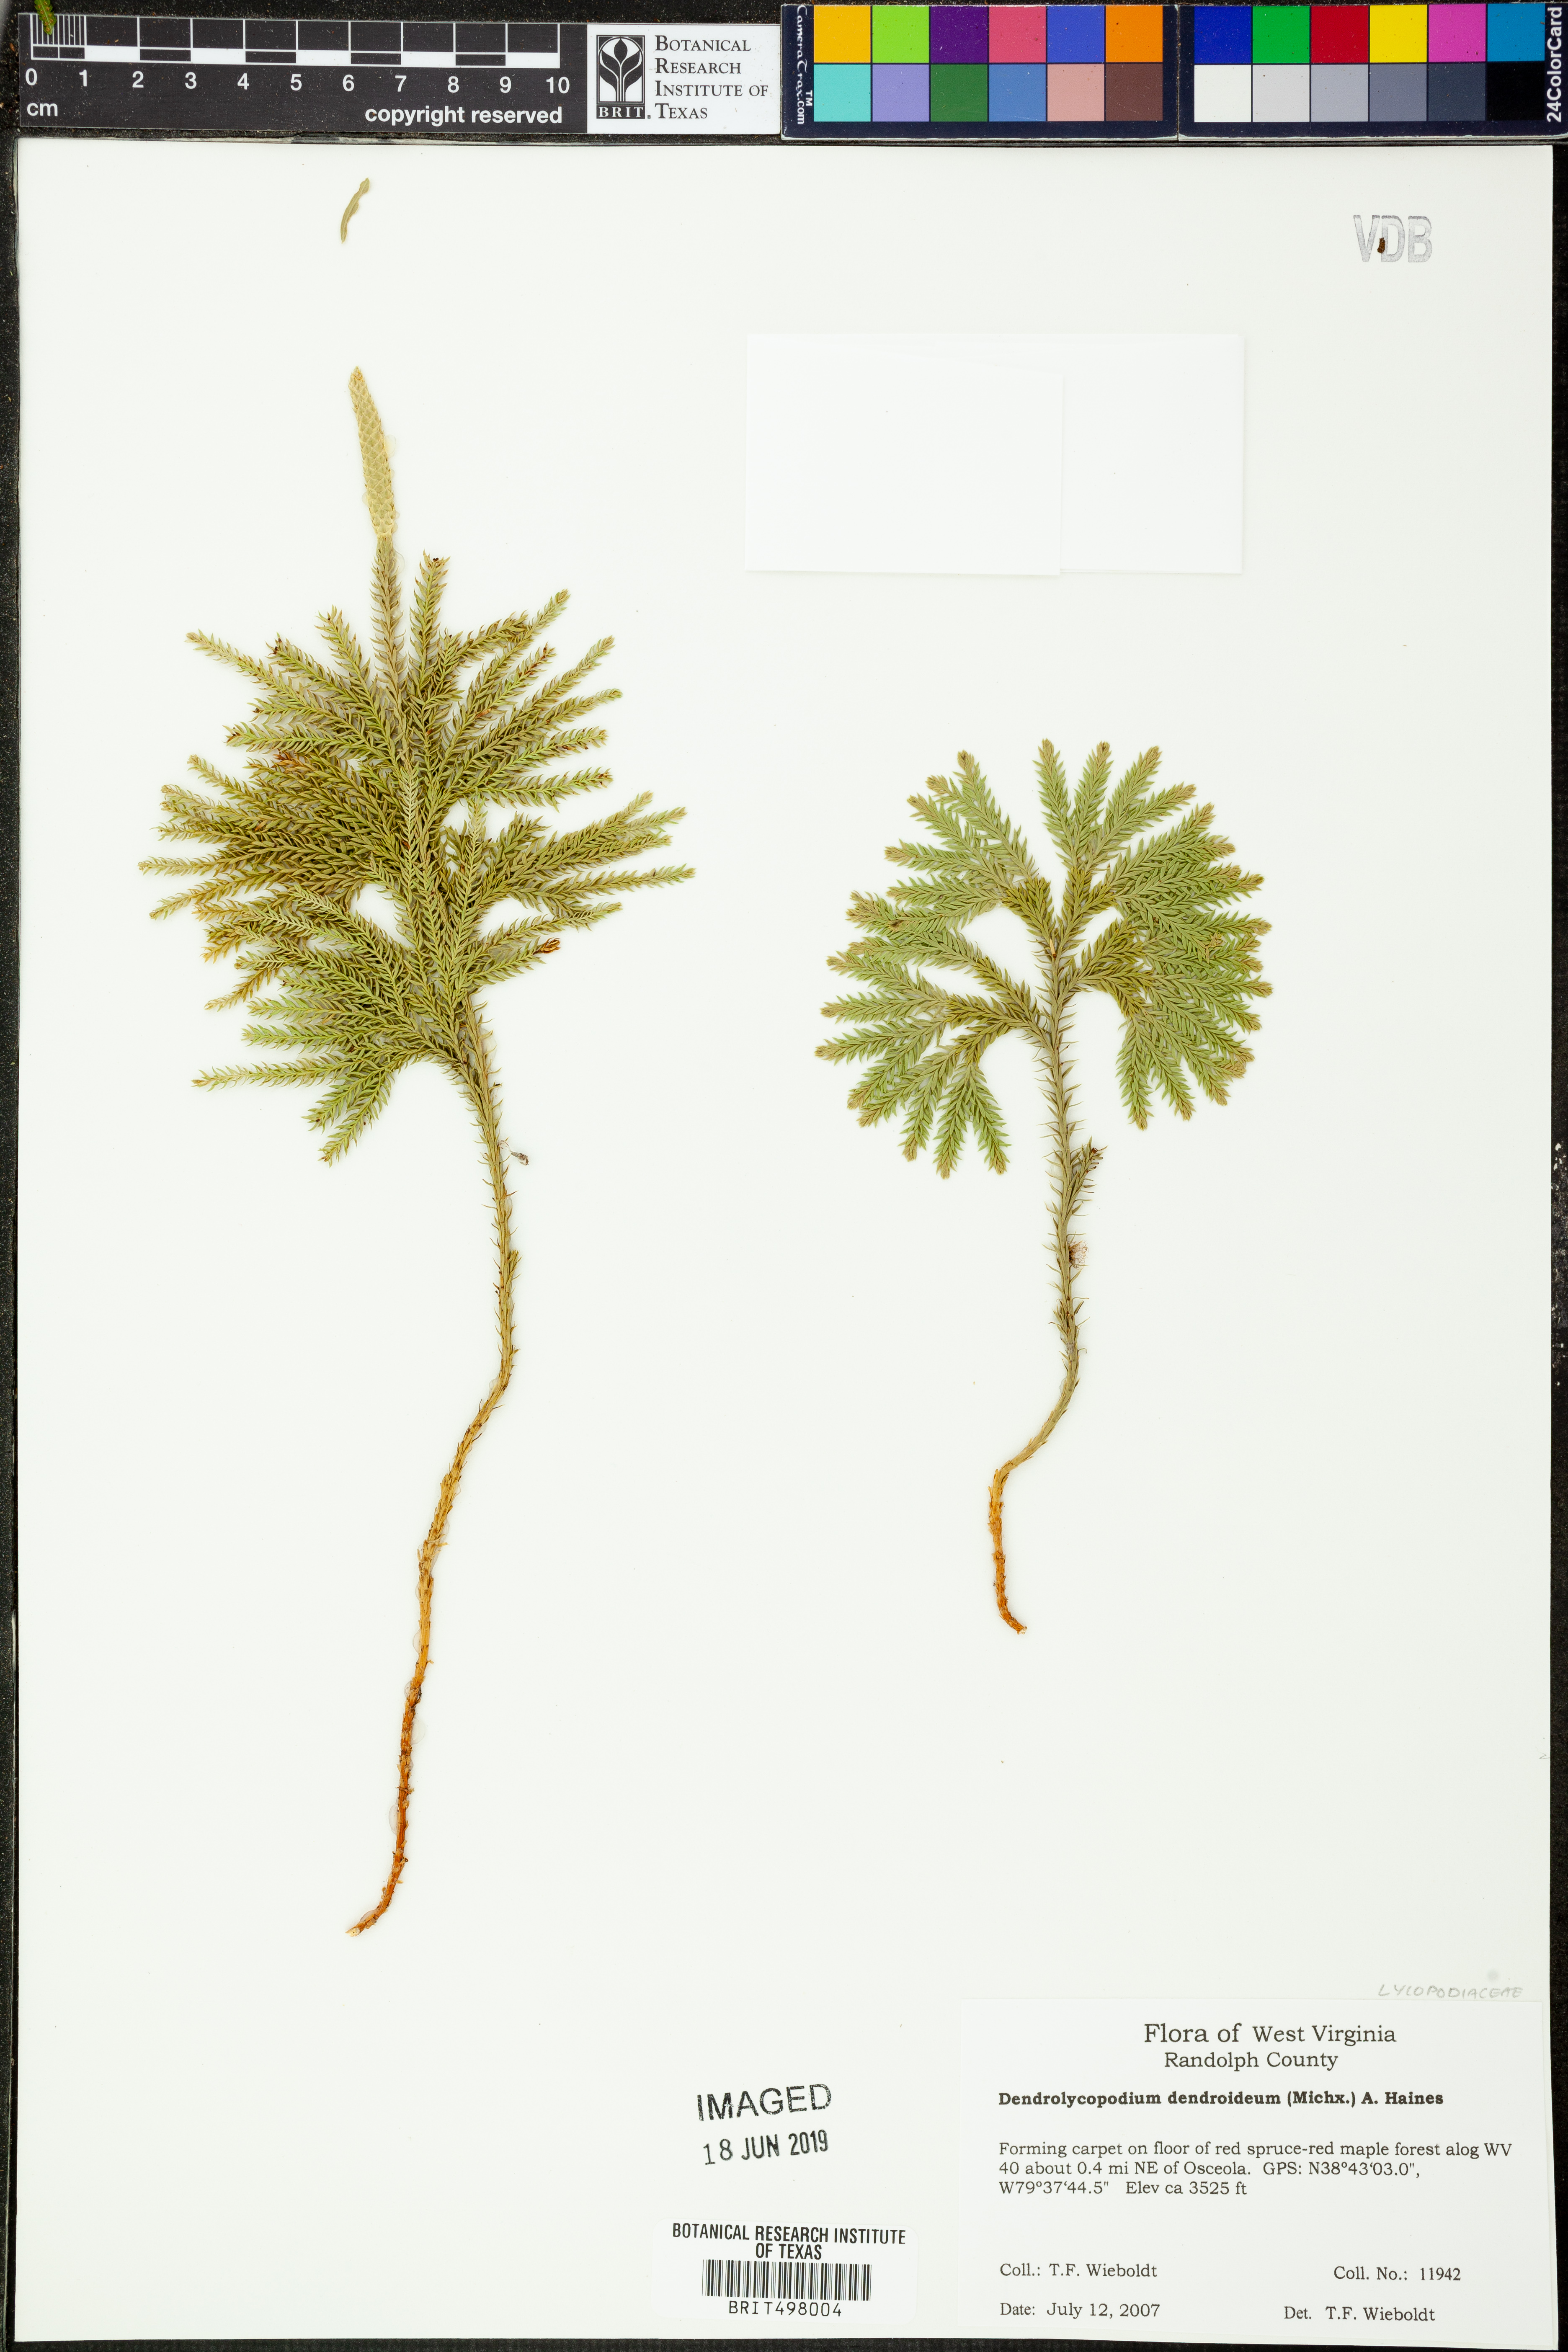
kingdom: Plantae
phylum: Tracheophyta
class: Lycopodiopsida
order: Lycopodiales
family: Lycopodiaceae
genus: Dendrolycopodium
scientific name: Dendrolycopodium dendroideum
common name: Northern tree-clubmoss
